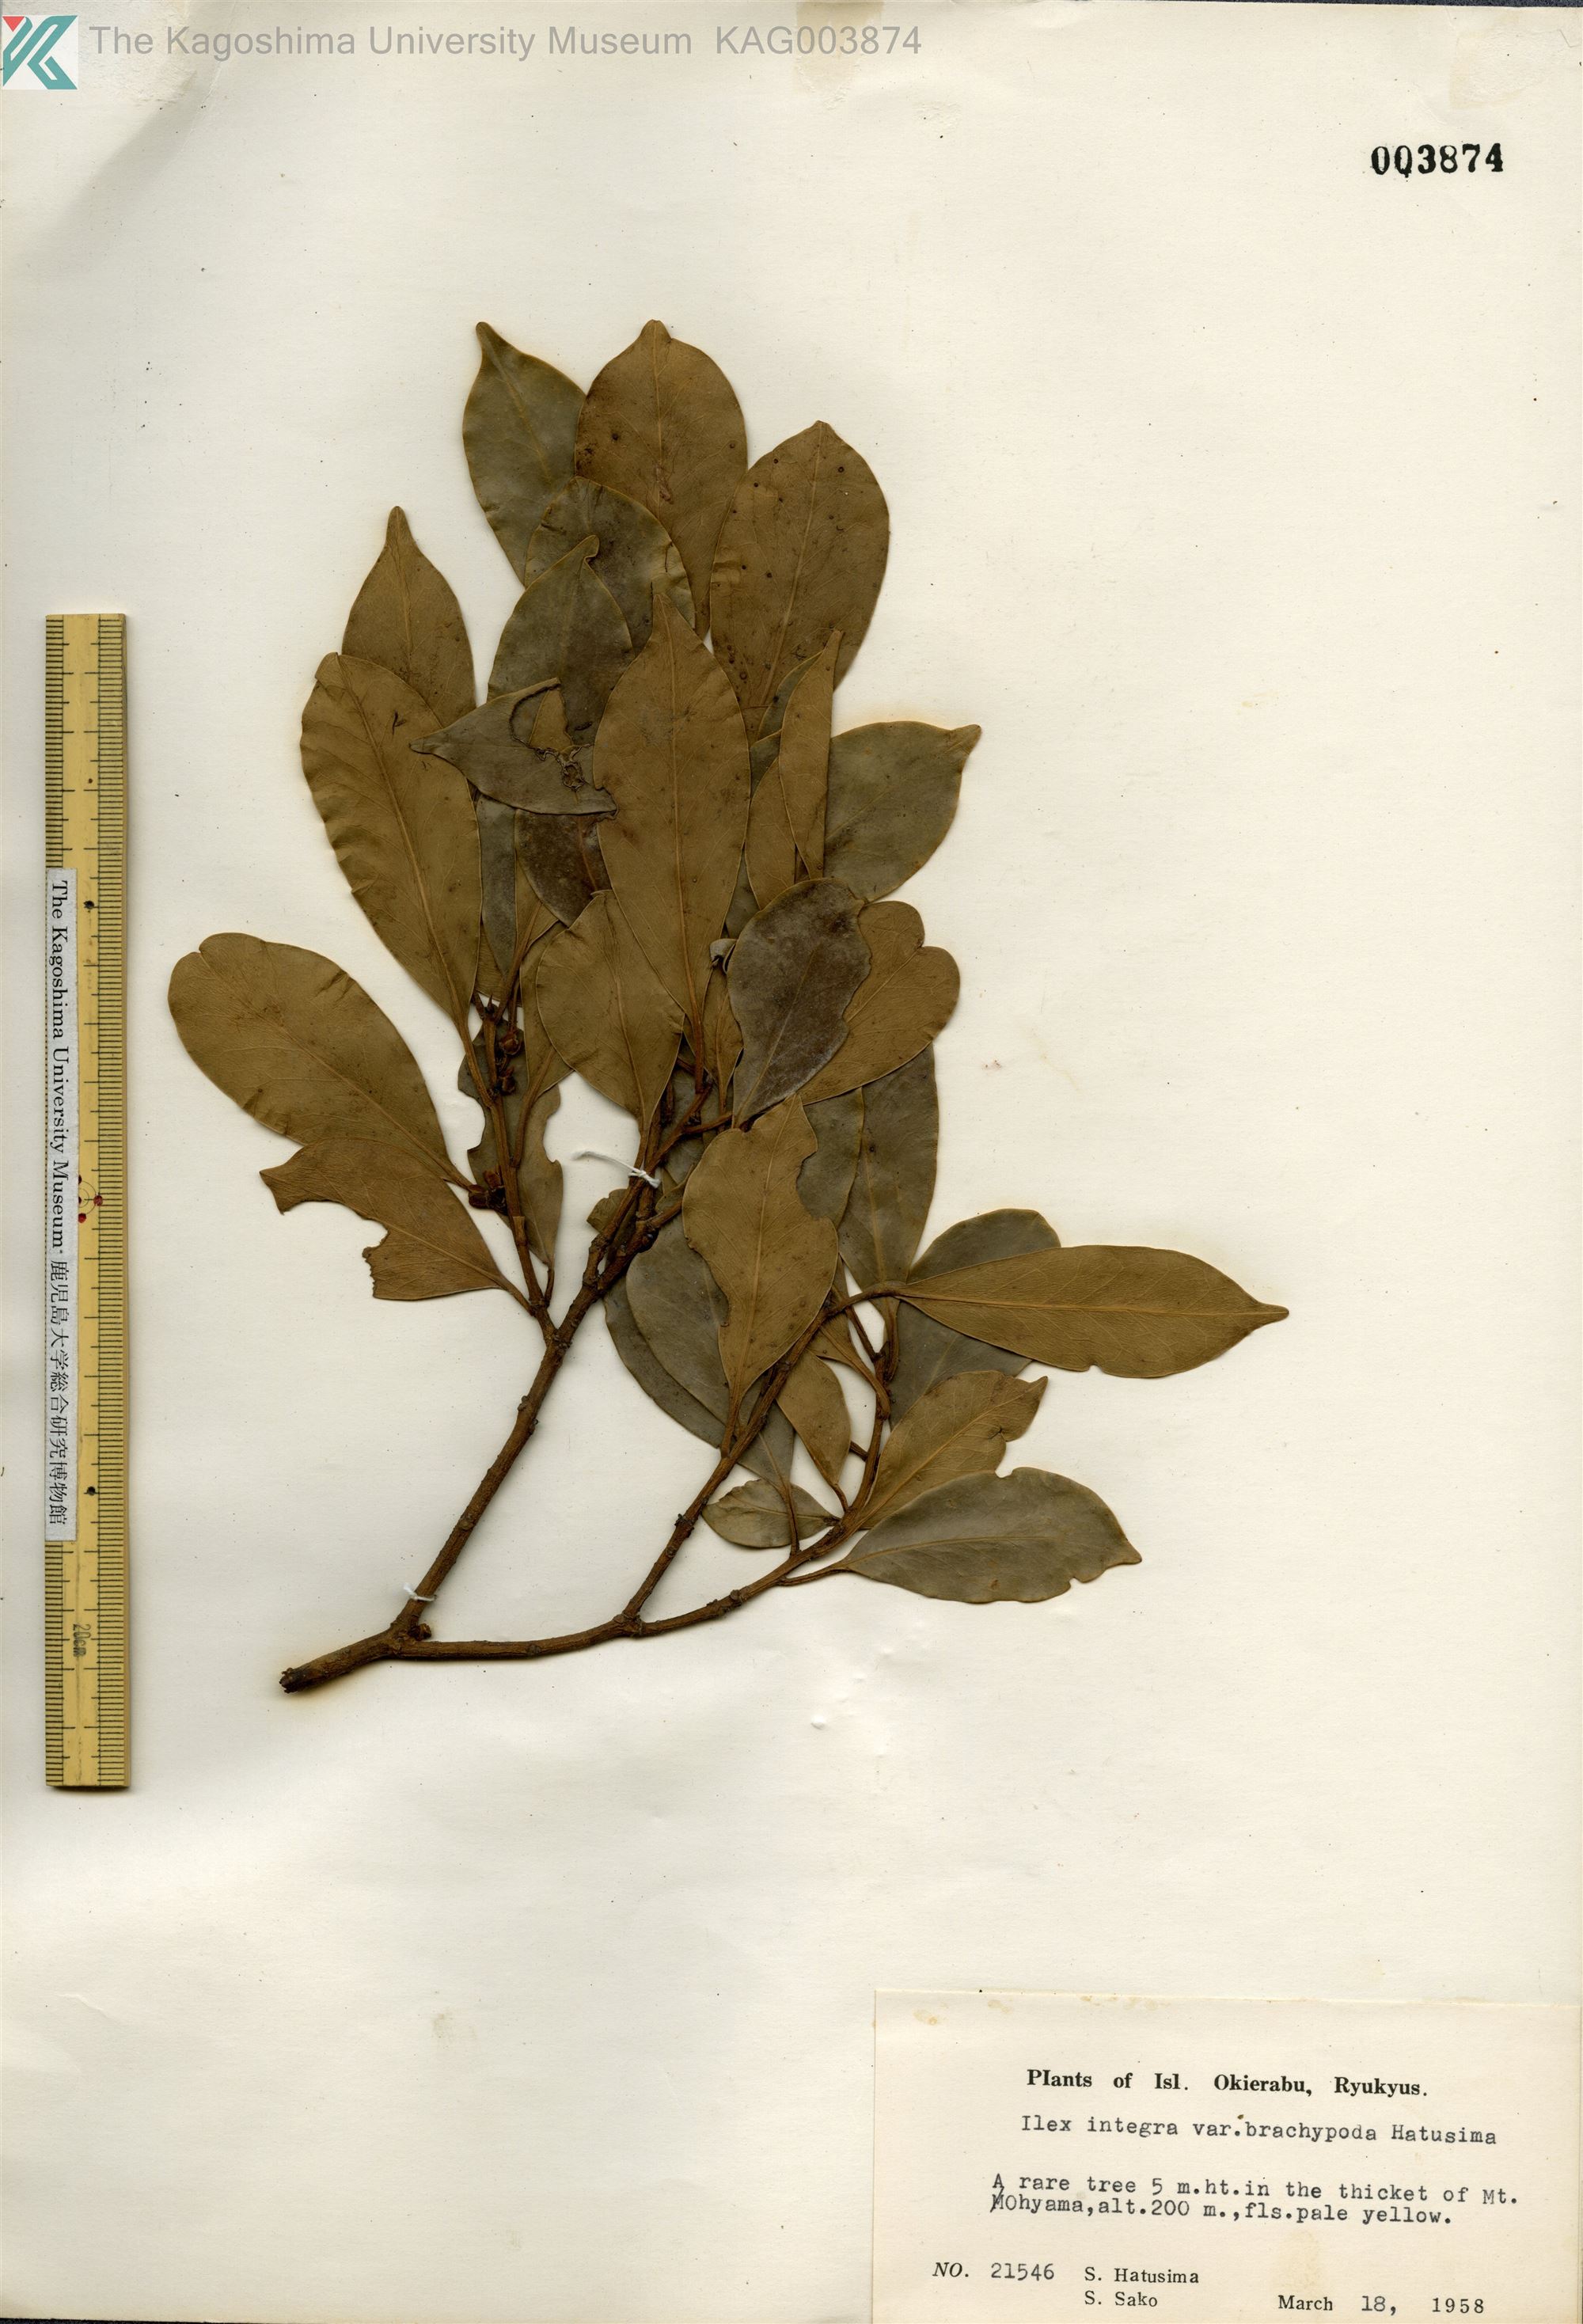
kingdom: Plantae
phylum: Tracheophyta
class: Magnoliopsida
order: Aquifoliales
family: Aquifoliaceae
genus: Ilex
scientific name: Ilex integra
